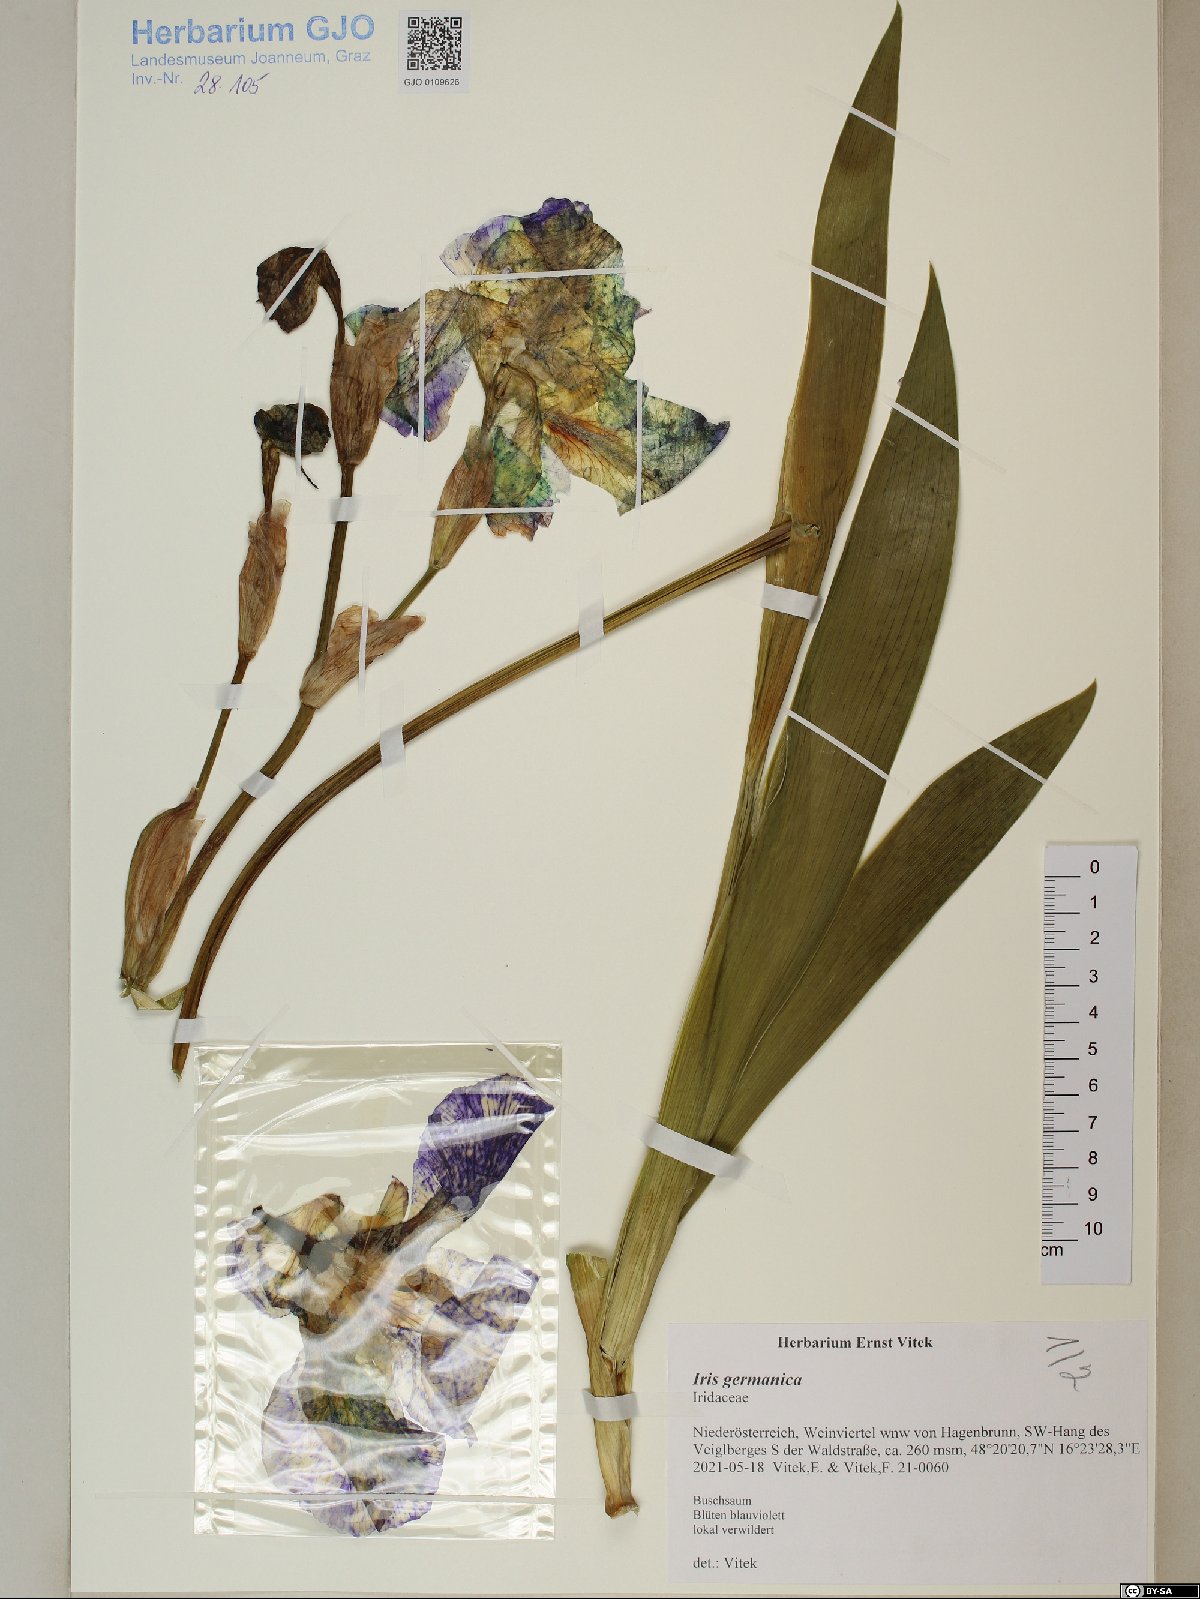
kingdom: Plantae
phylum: Tracheophyta
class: Liliopsida
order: Asparagales
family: Iridaceae
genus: Iris
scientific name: Iris germanica
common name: German iris
